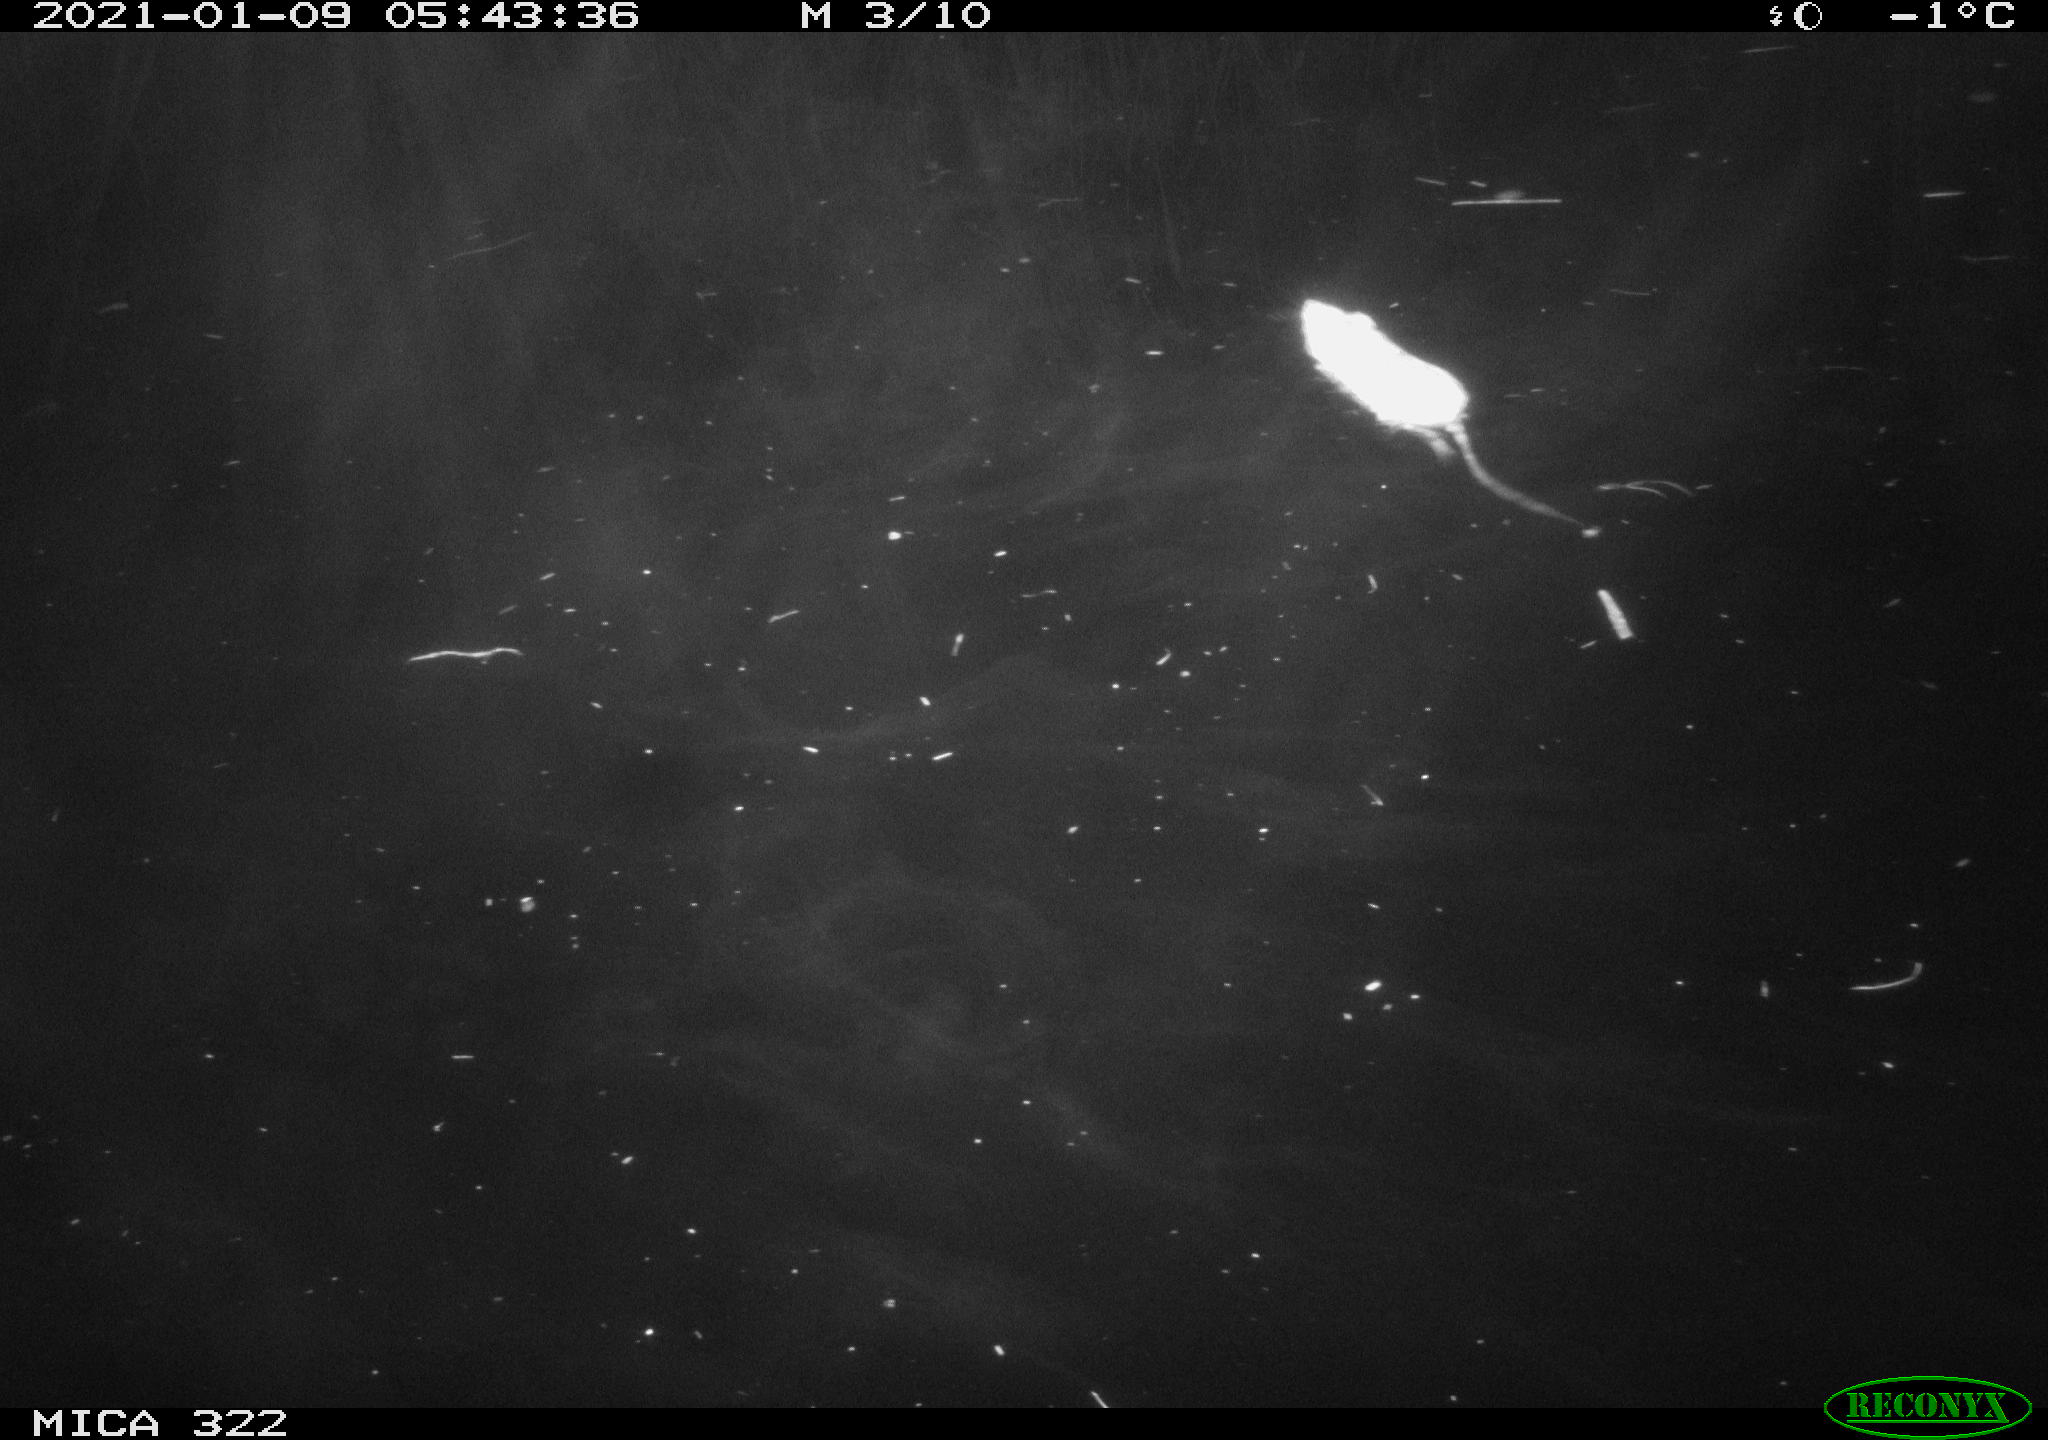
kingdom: Animalia
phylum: Chordata
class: Mammalia
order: Rodentia
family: Muridae
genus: Rattus
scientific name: Rattus norvegicus
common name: Brown rat
